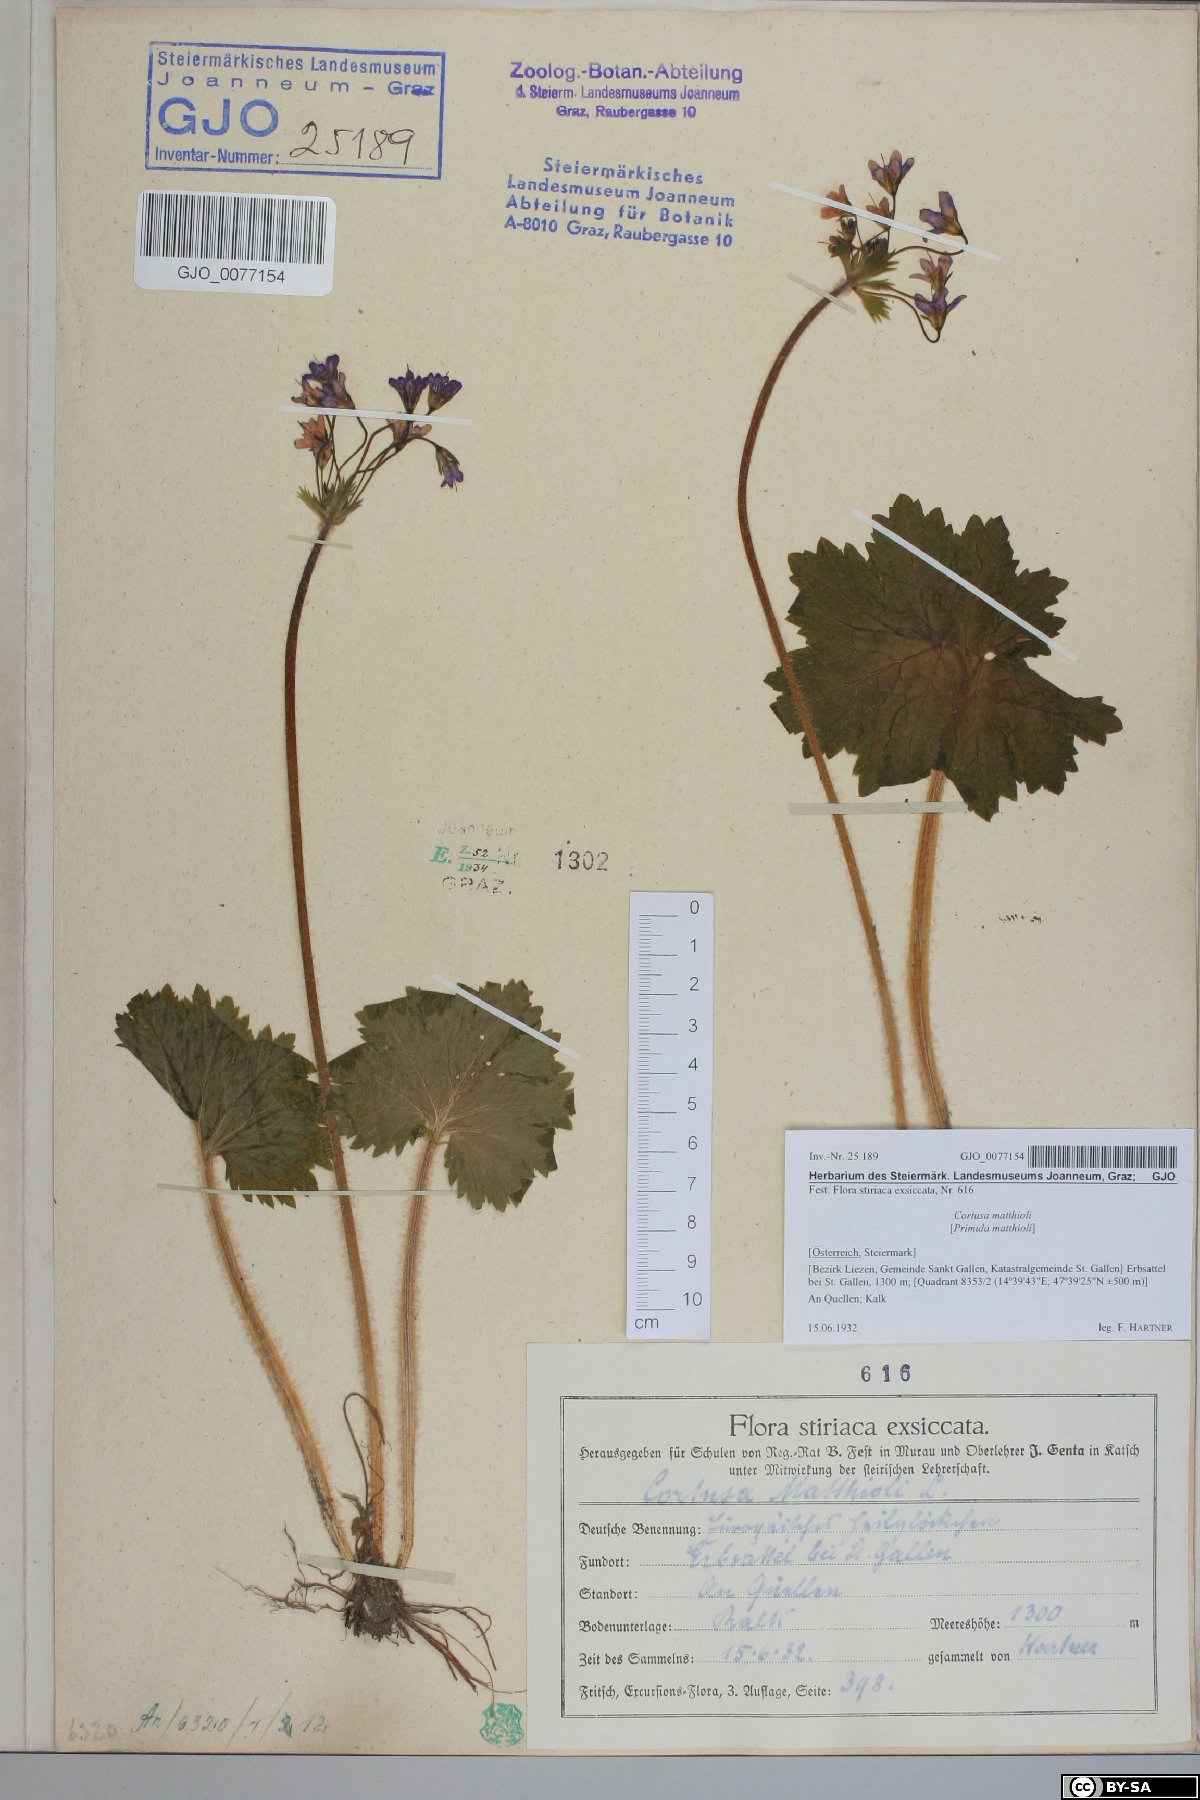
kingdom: Plantae
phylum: Tracheophyta
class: Magnoliopsida
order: Ericales
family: Primulaceae
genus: Primula
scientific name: Primula matthioli
